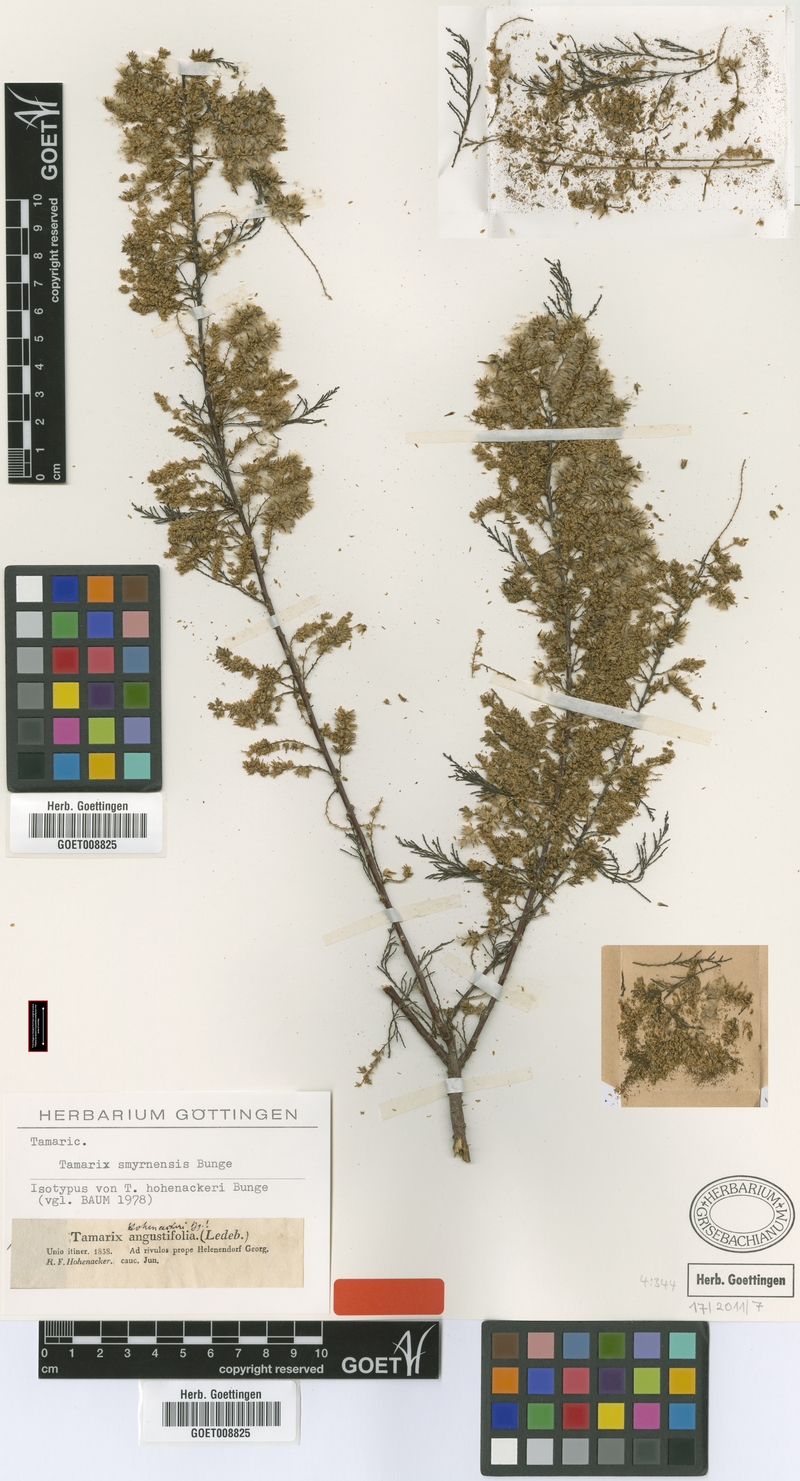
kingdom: Plantae
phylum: Tracheophyta
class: Magnoliopsida
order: Caryophyllales
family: Tamaricaceae
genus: Tamarix
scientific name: Tamarix smyrnensis
